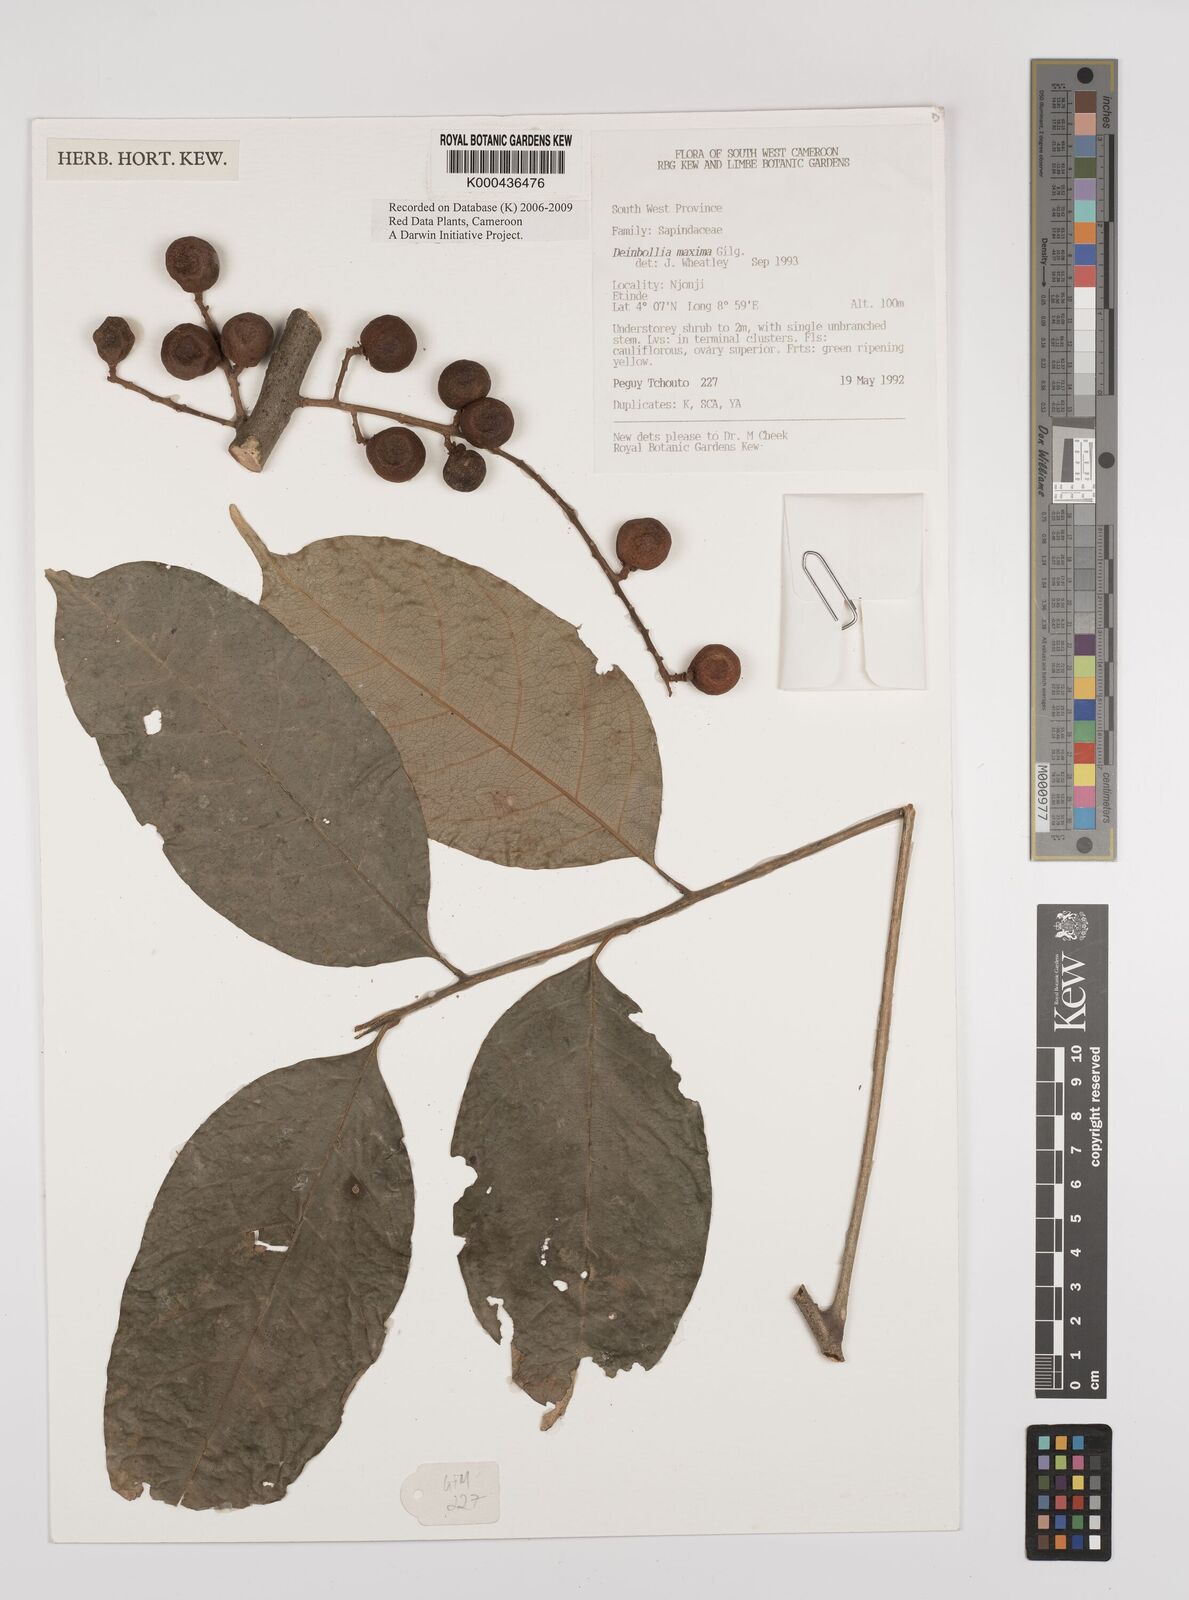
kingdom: Plantae
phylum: Tracheophyta
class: Magnoliopsida
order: Sapindales
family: Sapindaceae
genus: Deinbollia
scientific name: Deinbollia maxima
